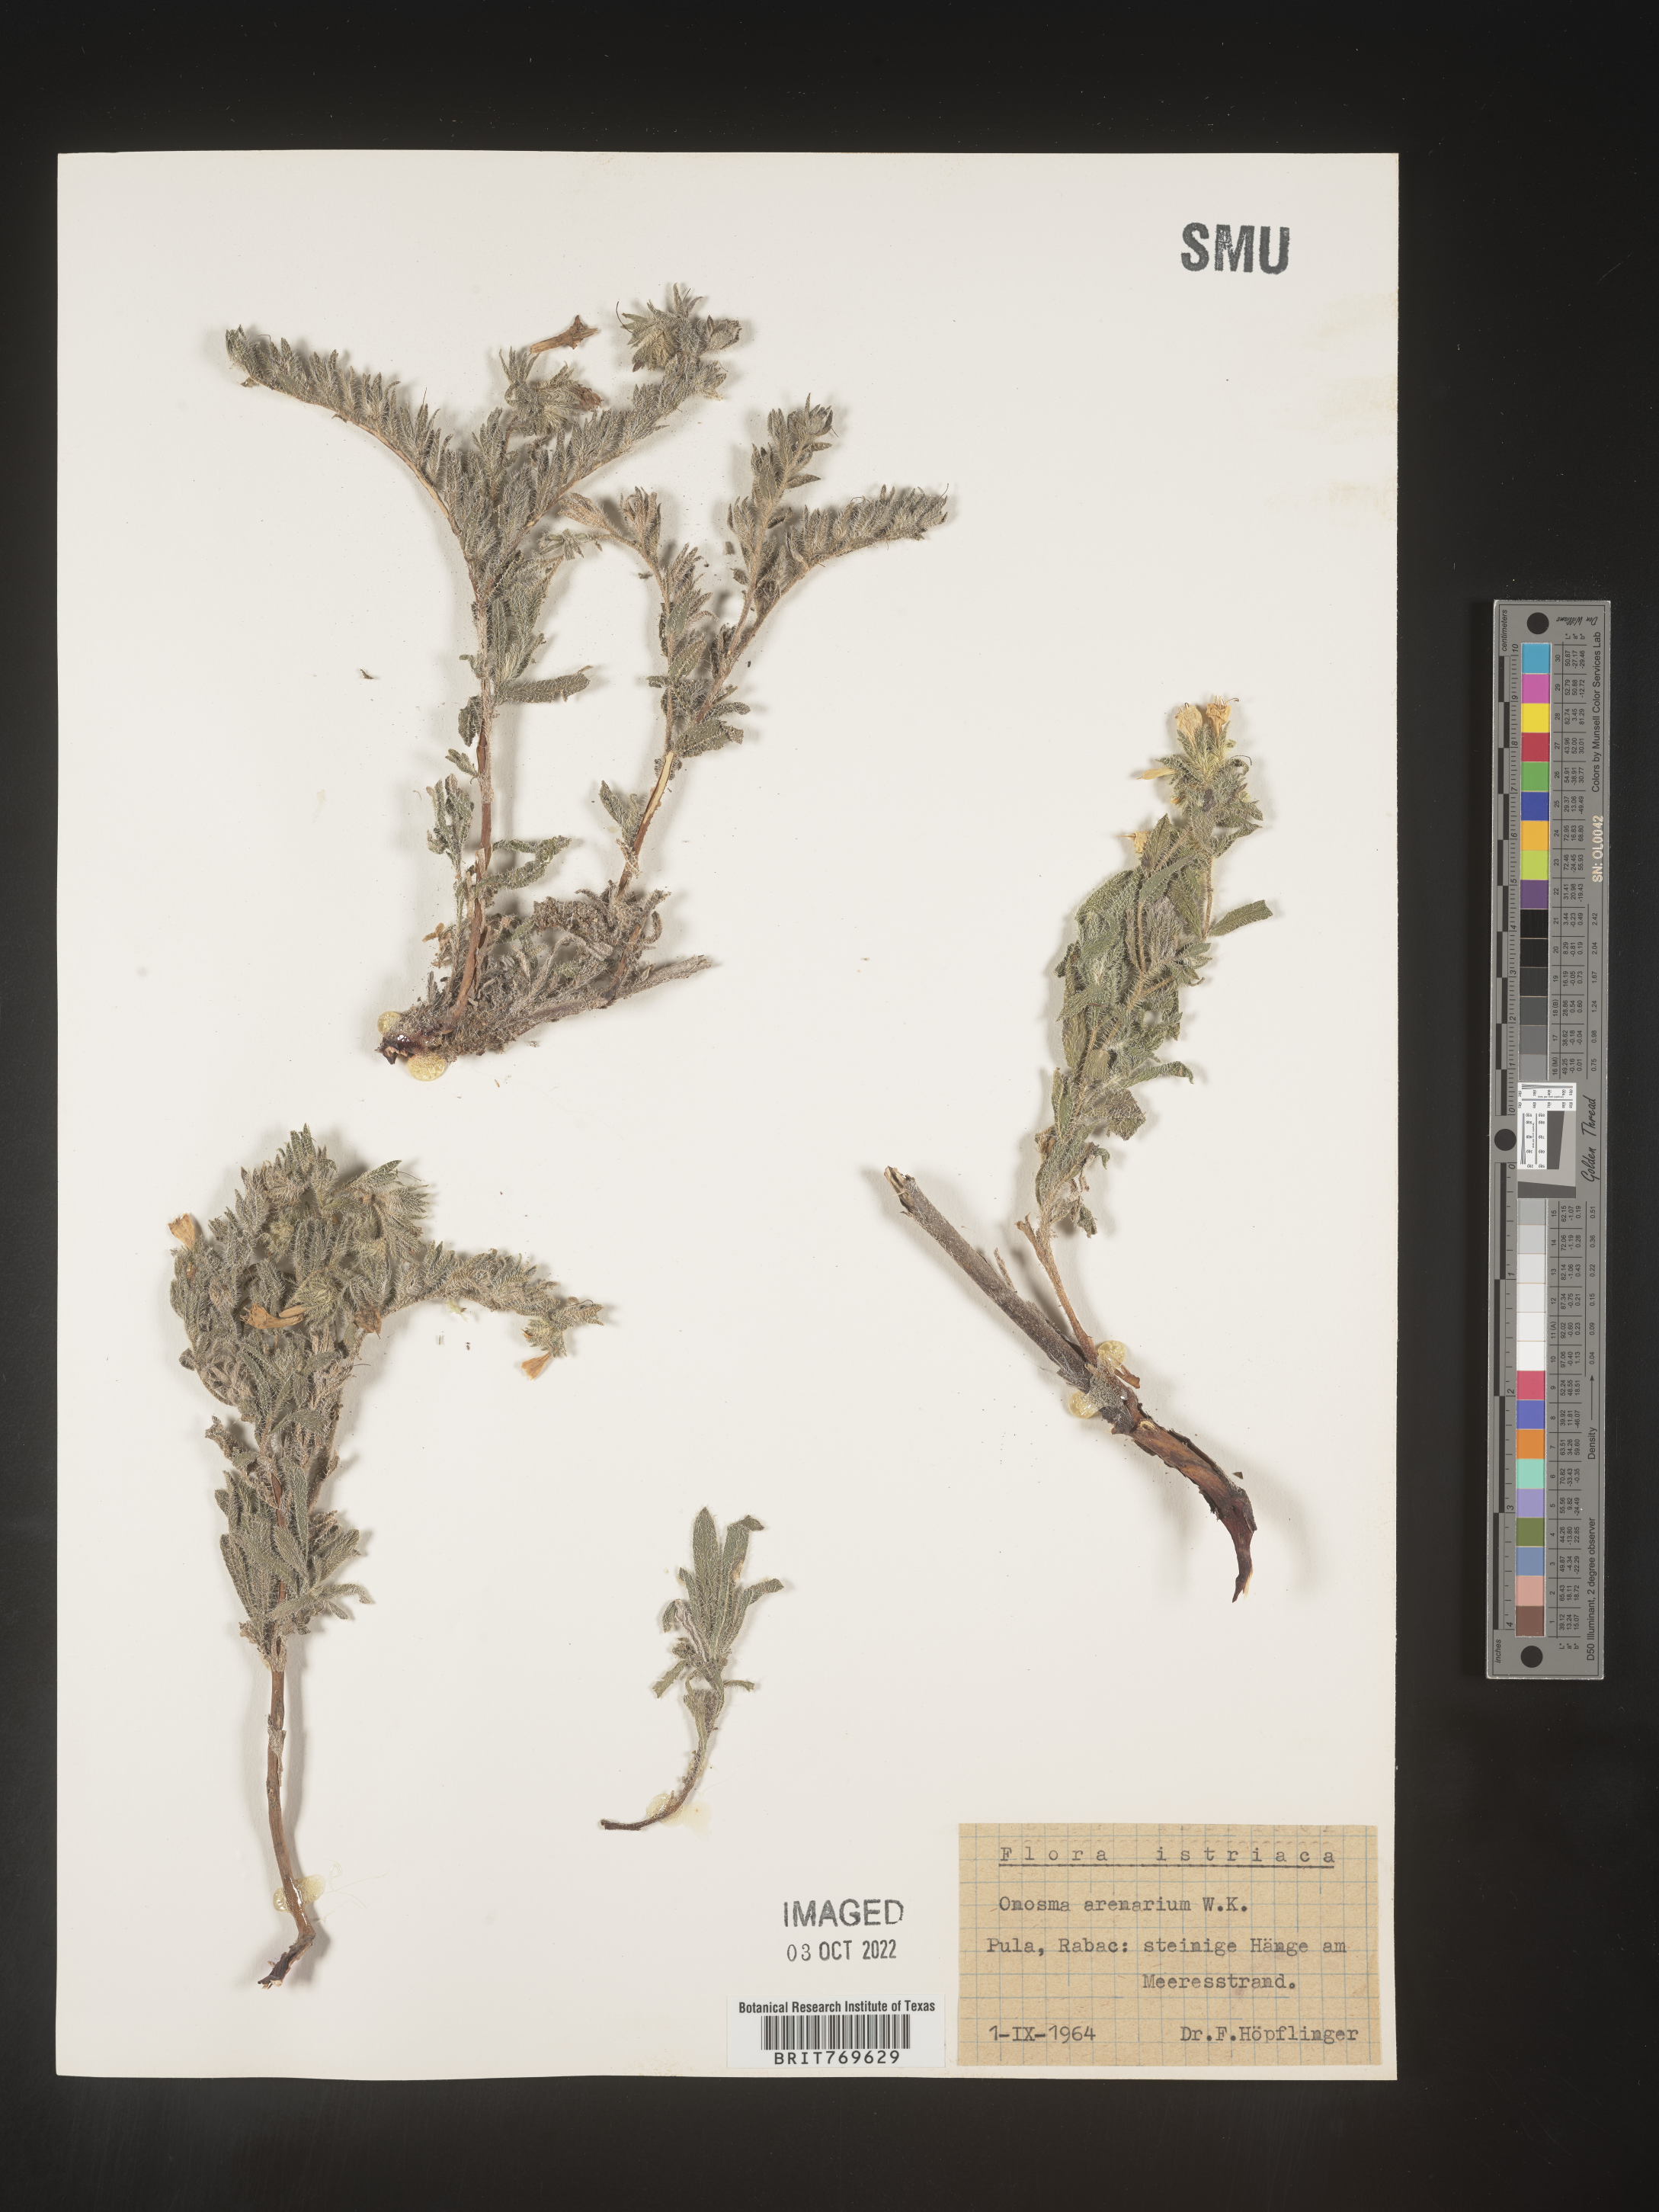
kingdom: Plantae
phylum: Tracheophyta
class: Magnoliopsida
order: Boraginales
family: Boraginaceae
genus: Onosma
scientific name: Onosma
